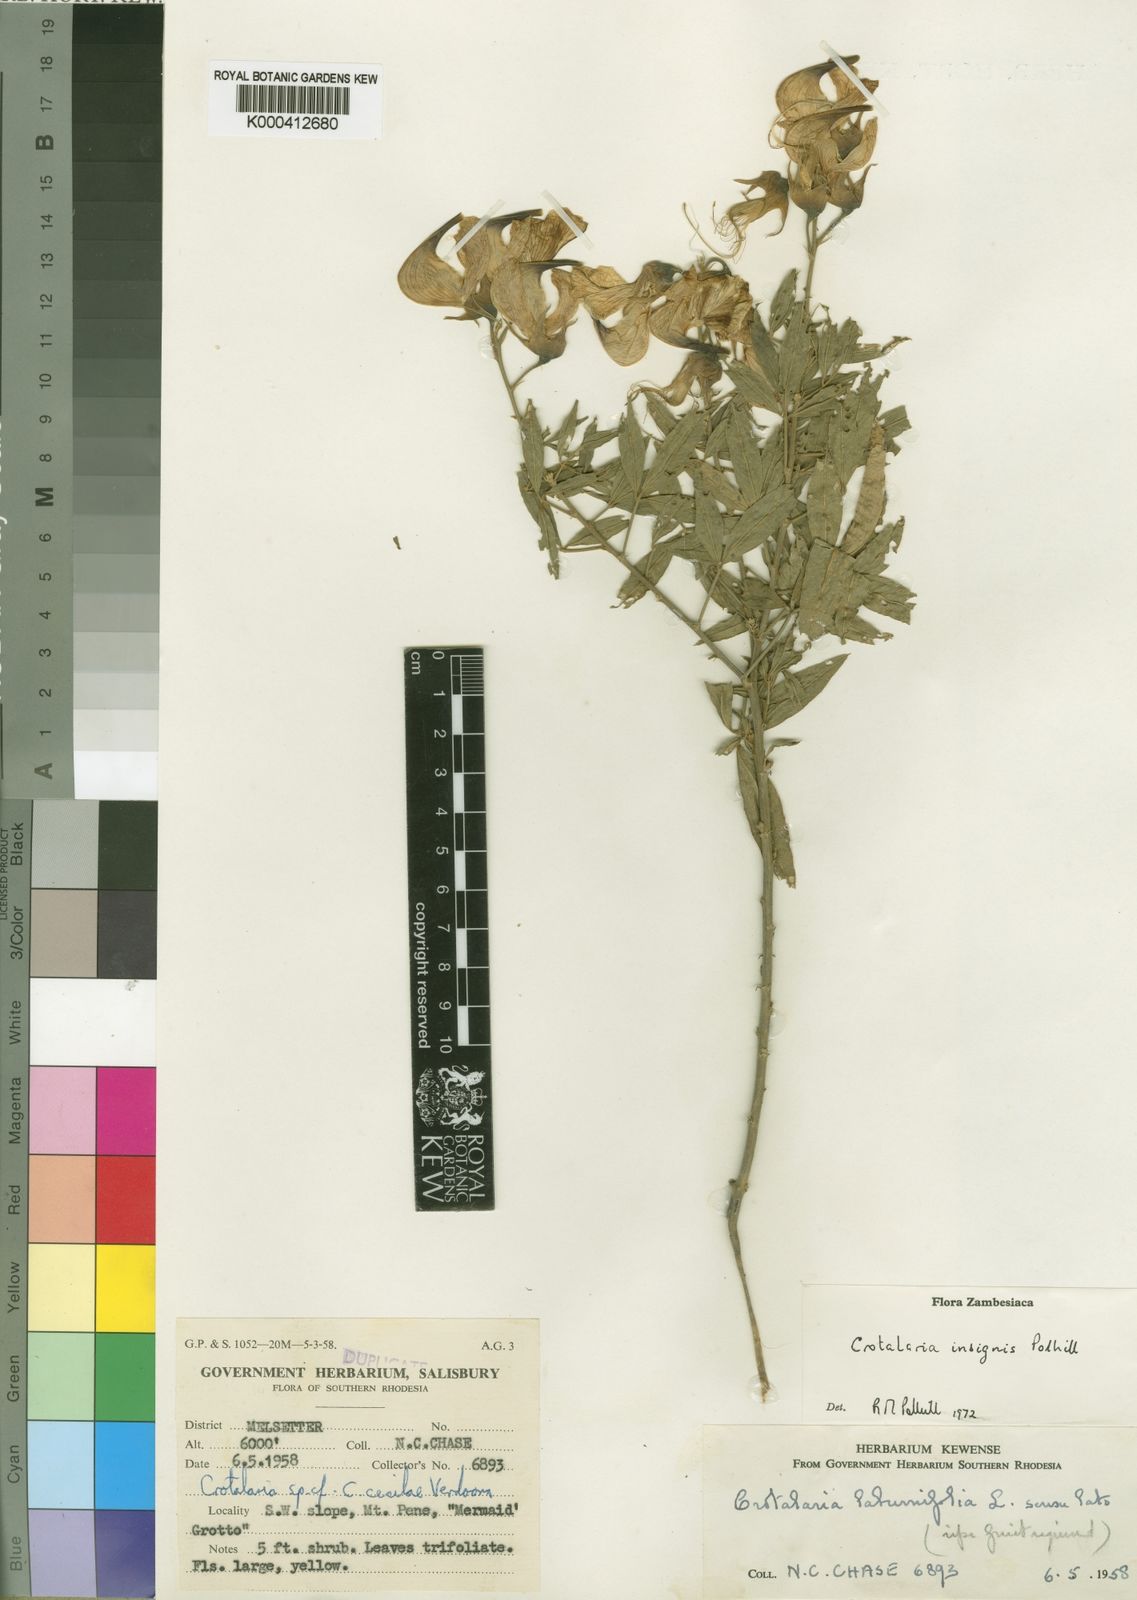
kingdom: Plantae
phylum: Tracheophyta
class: Magnoliopsida
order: Fabales
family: Fabaceae
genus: Crotalaria
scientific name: Crotalaria insignis
